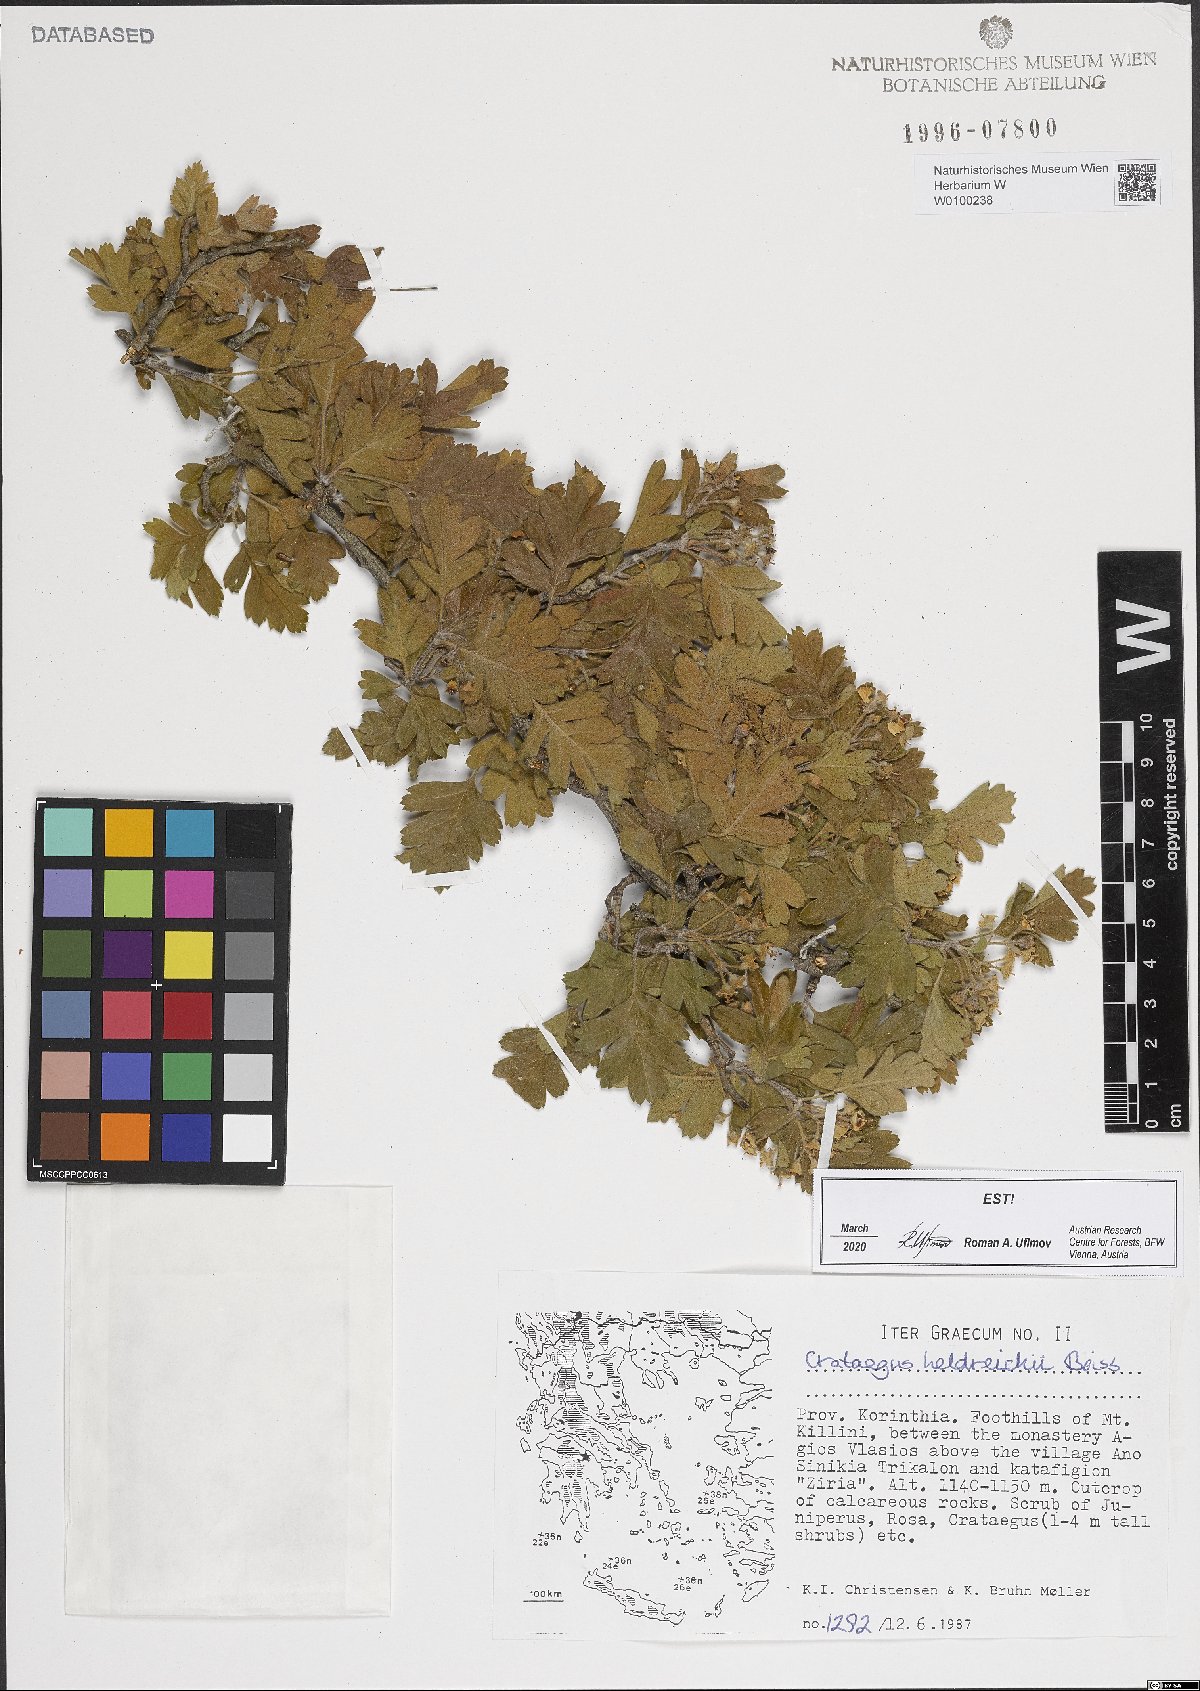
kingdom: Plantae
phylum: Tracheophyta
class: Magnoliopsida
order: Rosales
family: Rosaceae
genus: Crataegus
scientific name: Crataegus heldreichii
